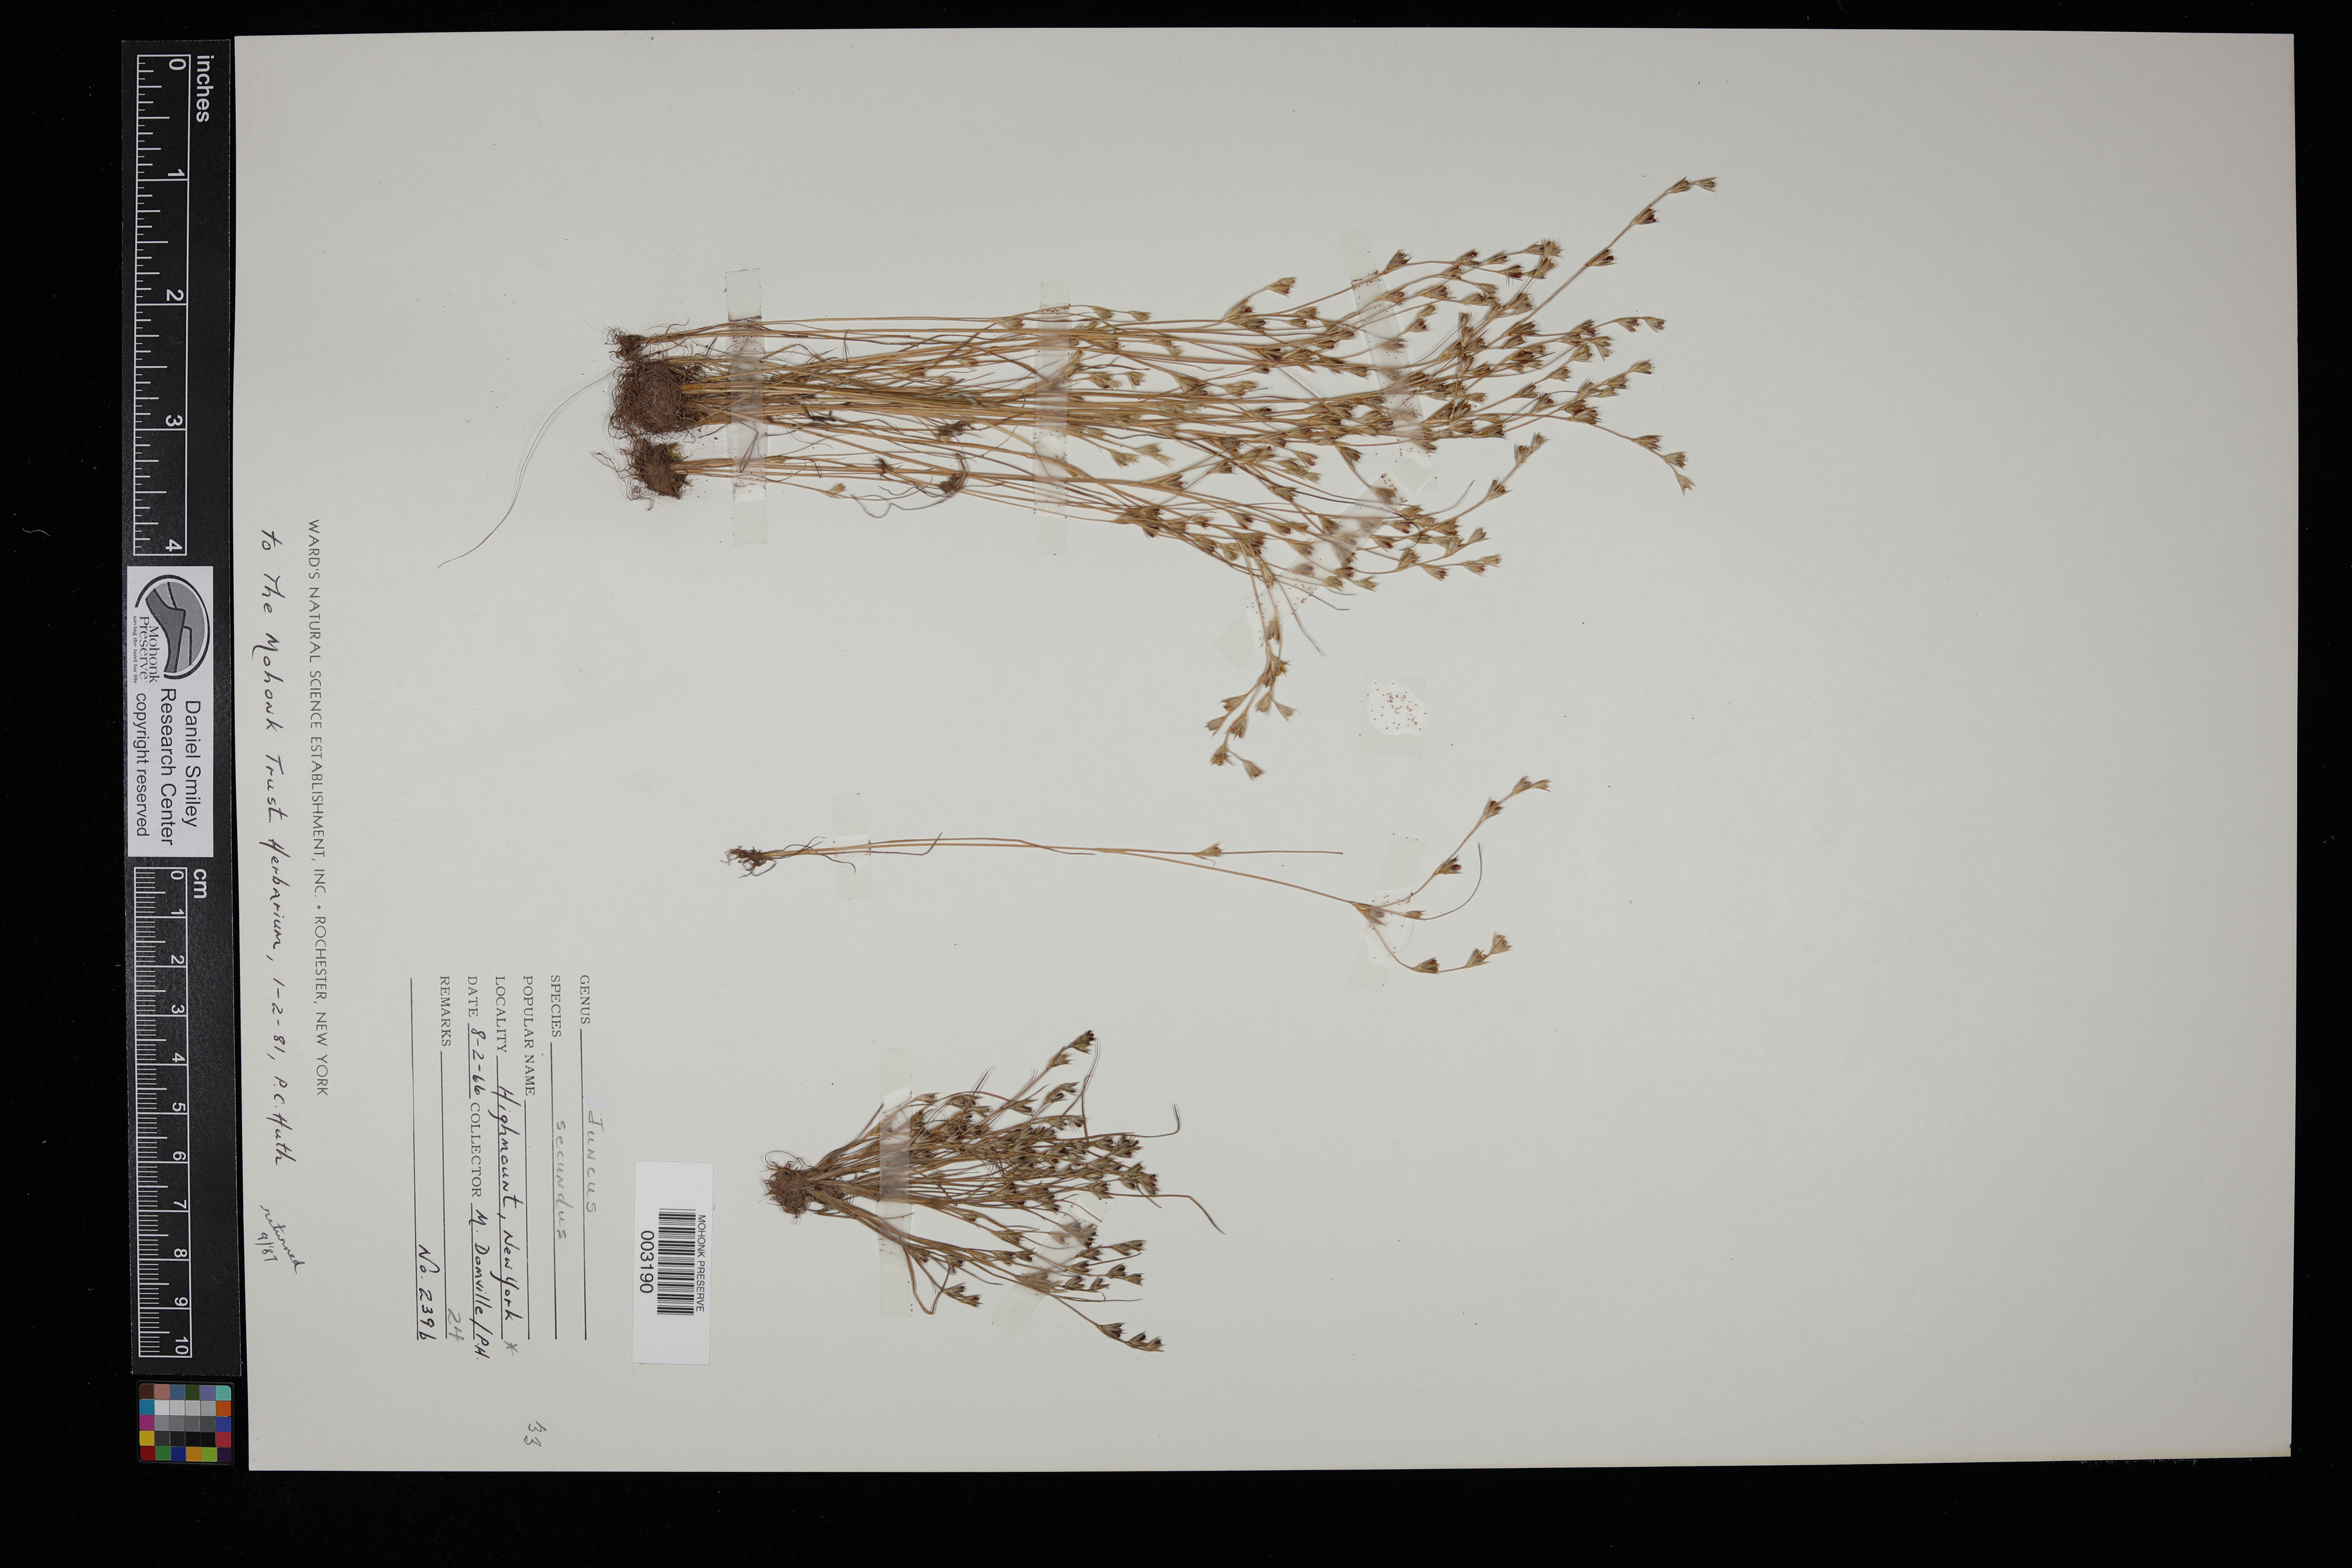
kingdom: Plantae
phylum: Tracheophyta
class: Liliopsida
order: Poales
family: Juncaceae
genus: Juncus
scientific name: Juncus secundus
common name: Lopsided rush
